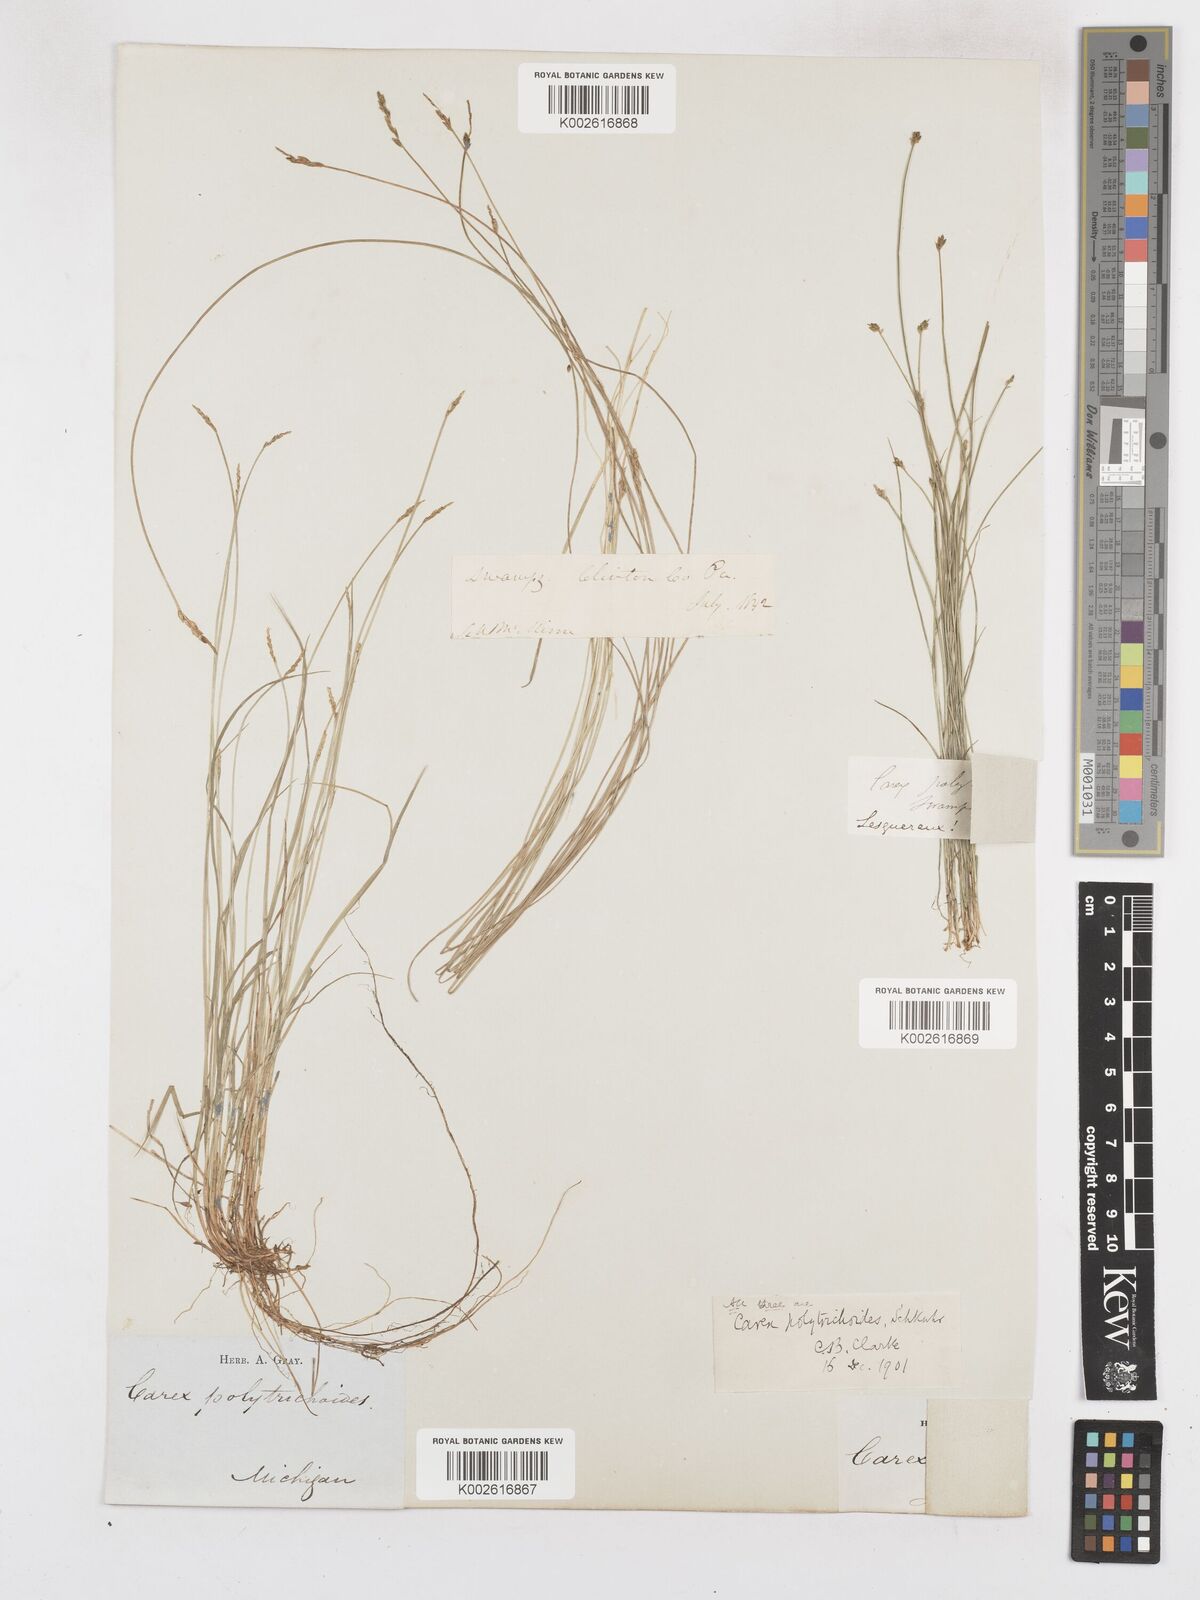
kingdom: Plantae
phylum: Tracheophyta
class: Liliopsida
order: Poales
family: Cyperaceae
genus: Carex
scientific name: Carex leptalea
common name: Bristly-stalked sedge
